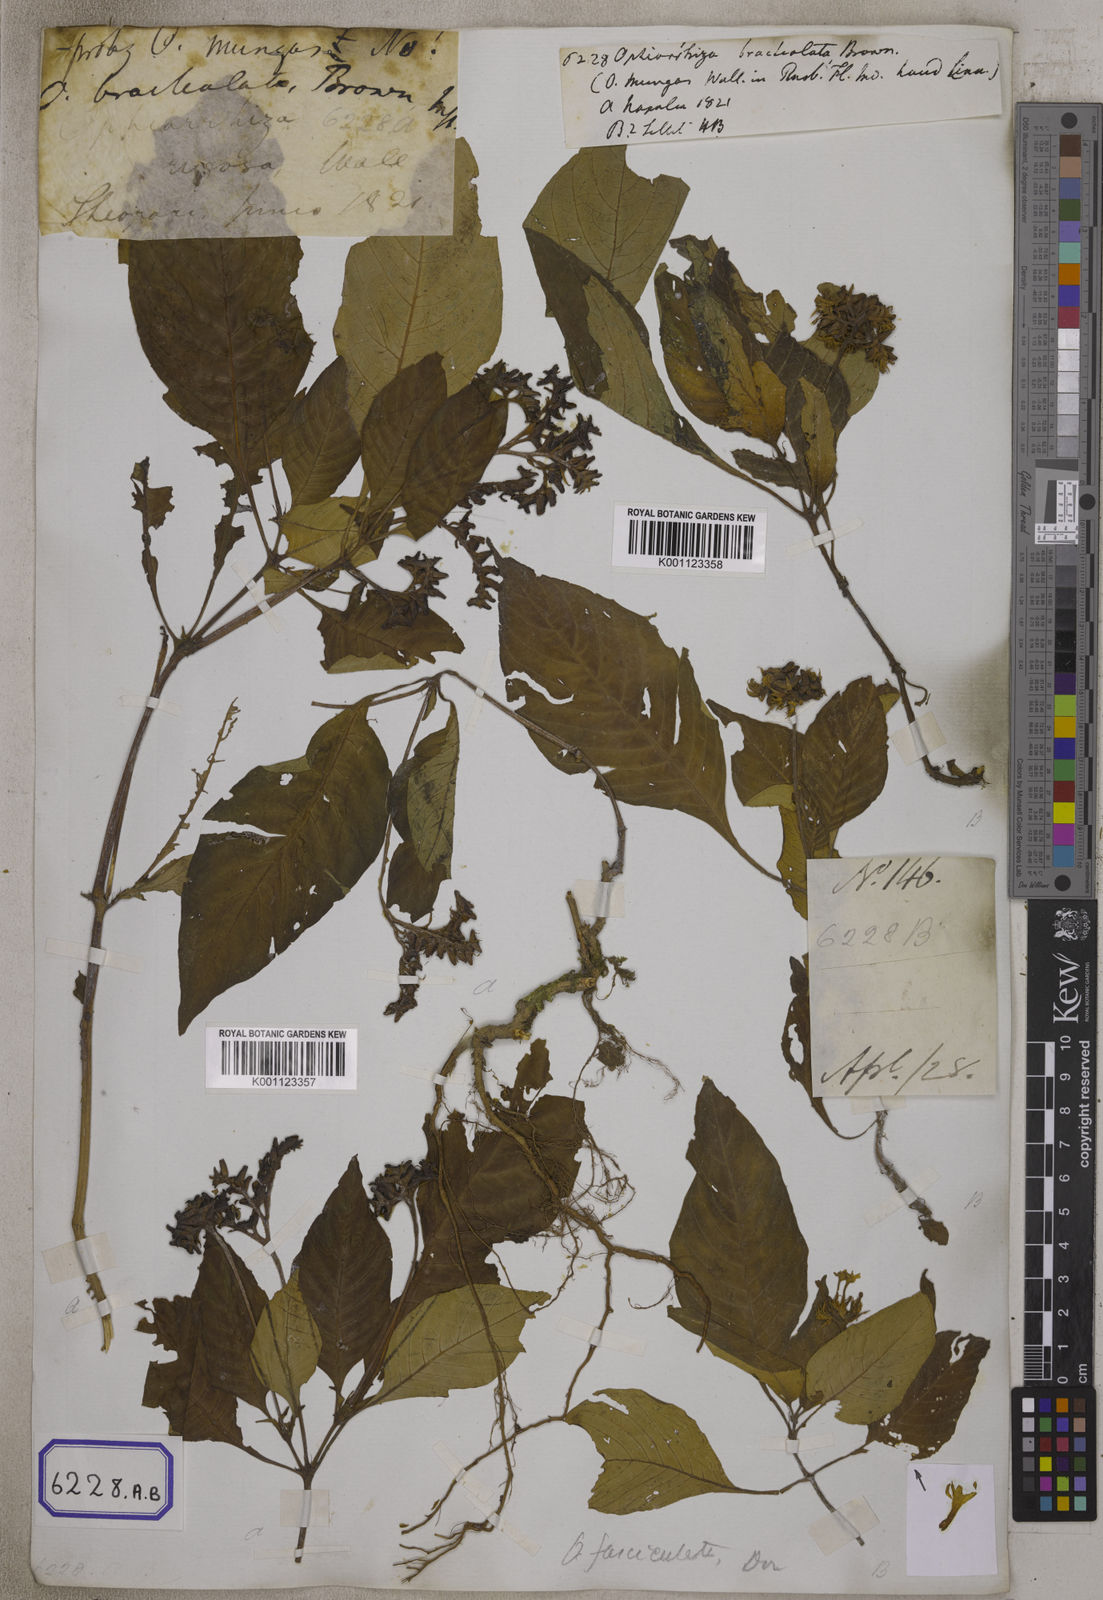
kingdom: Plantae
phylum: Tracheophyta
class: Magnoliopsida
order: Gentianales
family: Rubiaceae
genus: Ophiorrhiza
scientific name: Ophiorrhiza
